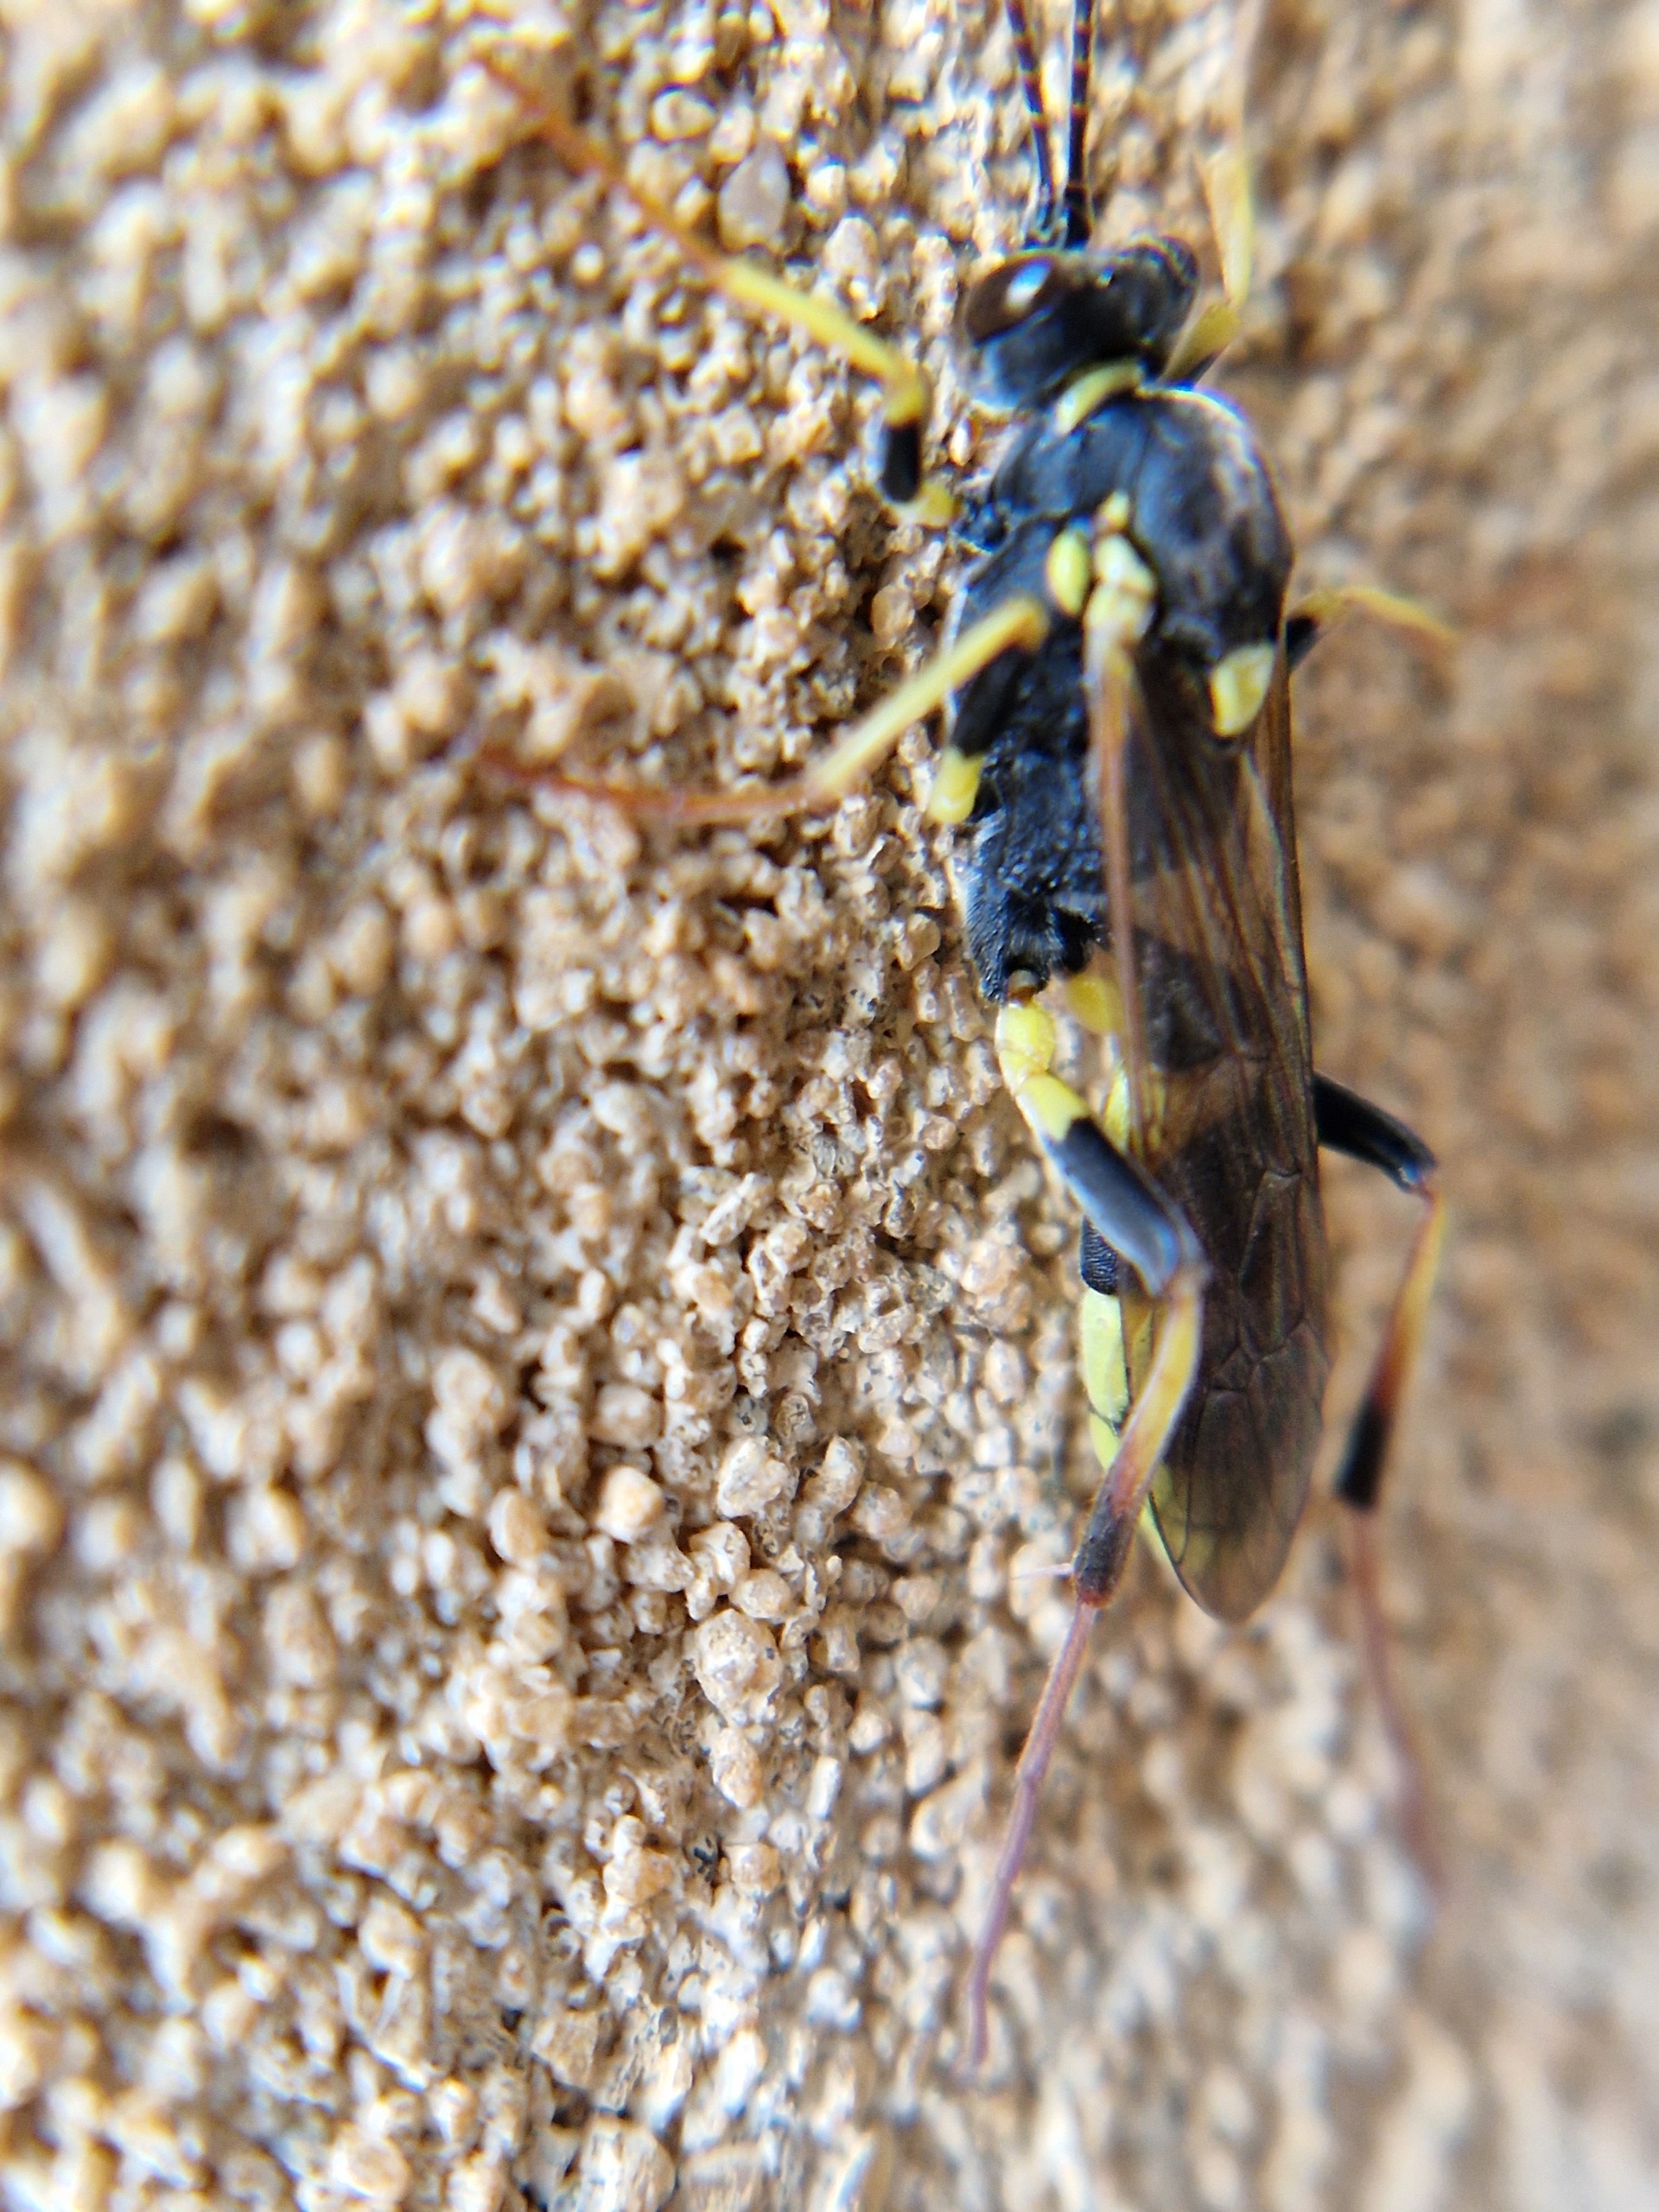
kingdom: Animalia
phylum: Arthropoda
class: Insecta
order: Hymenoptera
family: Ichneumonidae
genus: Amblyteles
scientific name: Amblyteles armatorius
